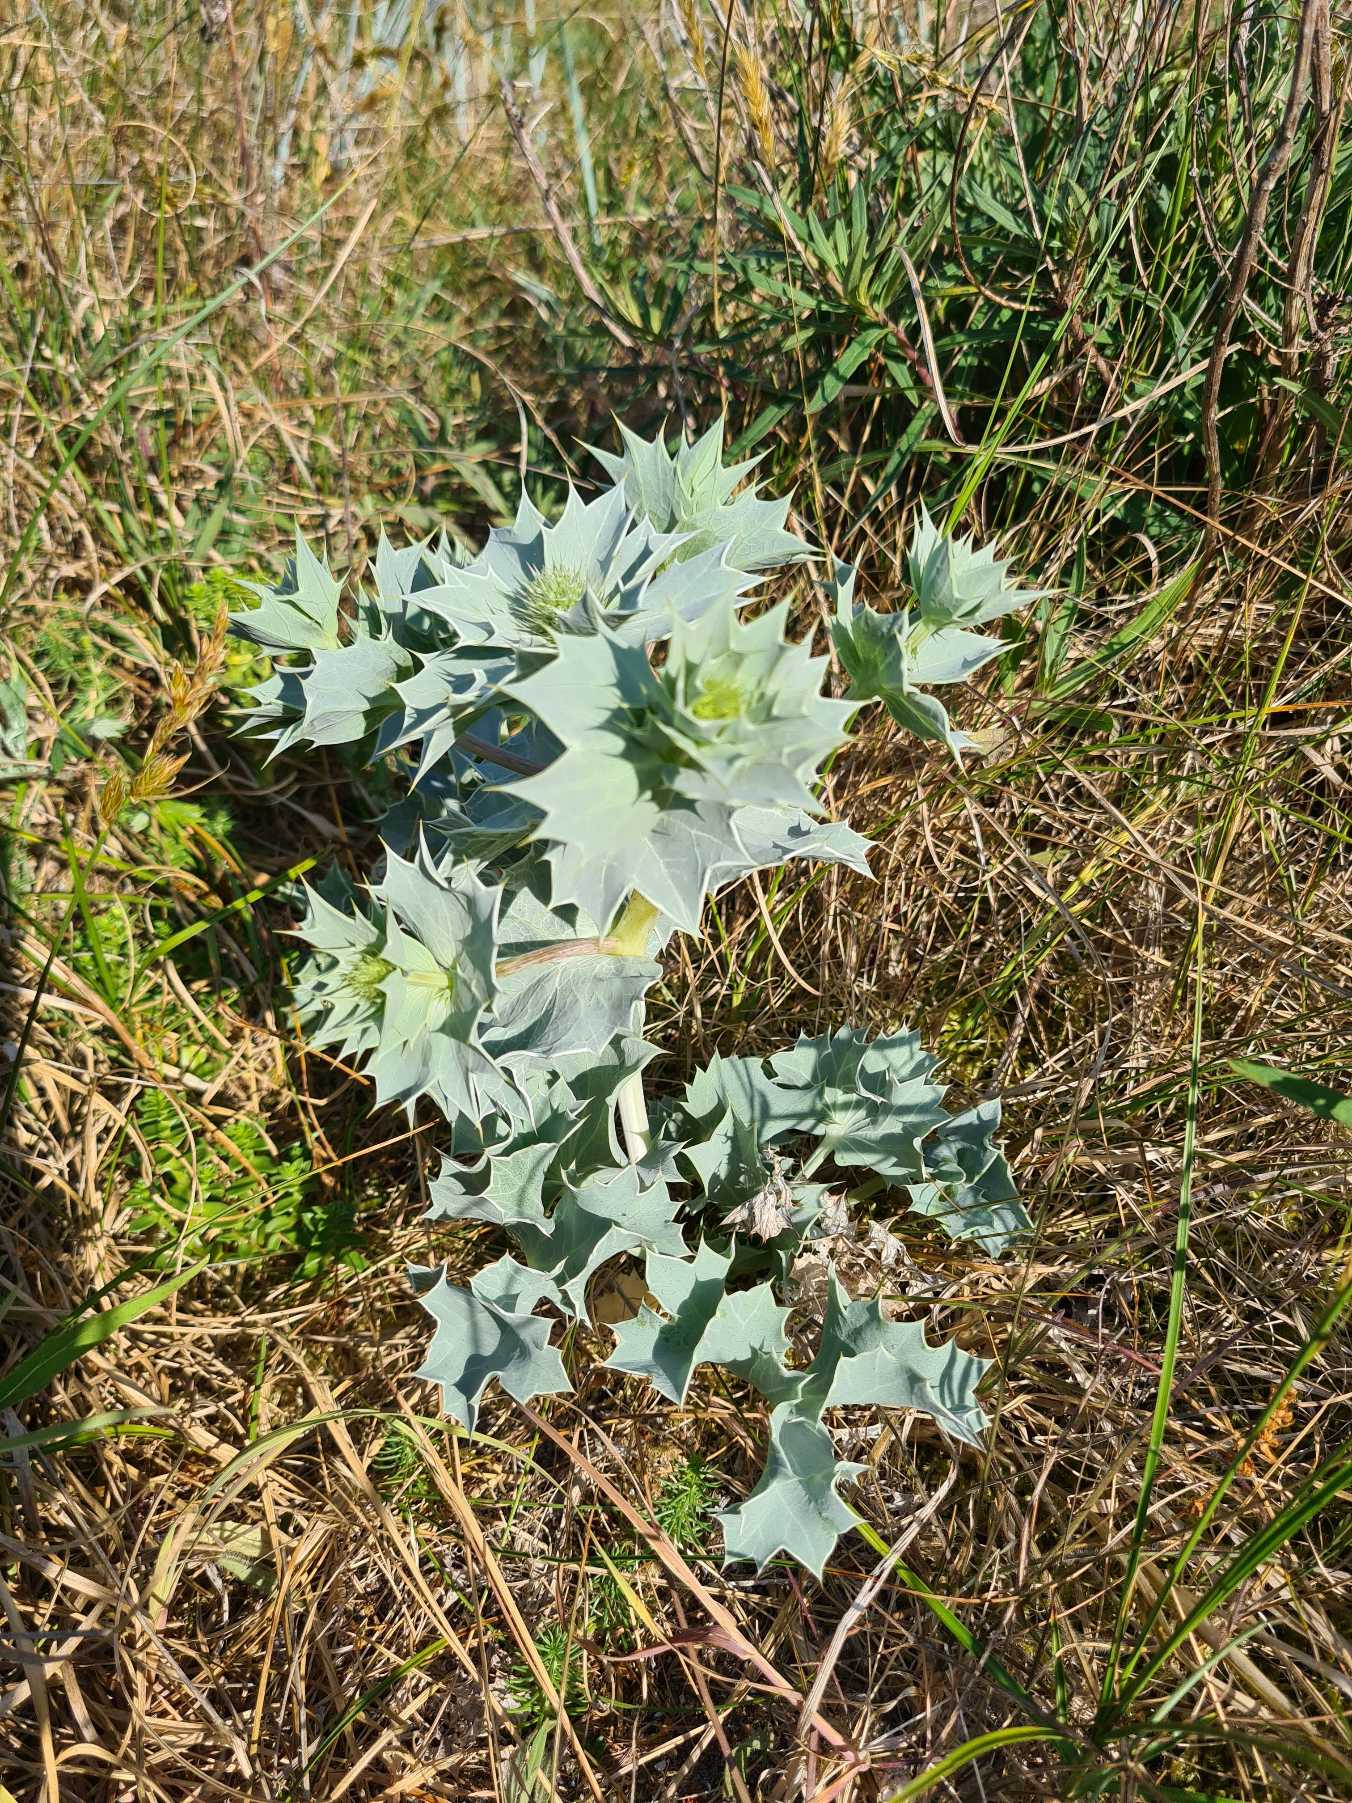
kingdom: Plantae
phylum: Tracheophyta
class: Magnoliopsida
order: Apiales
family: Apiaceae
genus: Eryngium
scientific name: Eryngium maritimum
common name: Strand-mandstro
